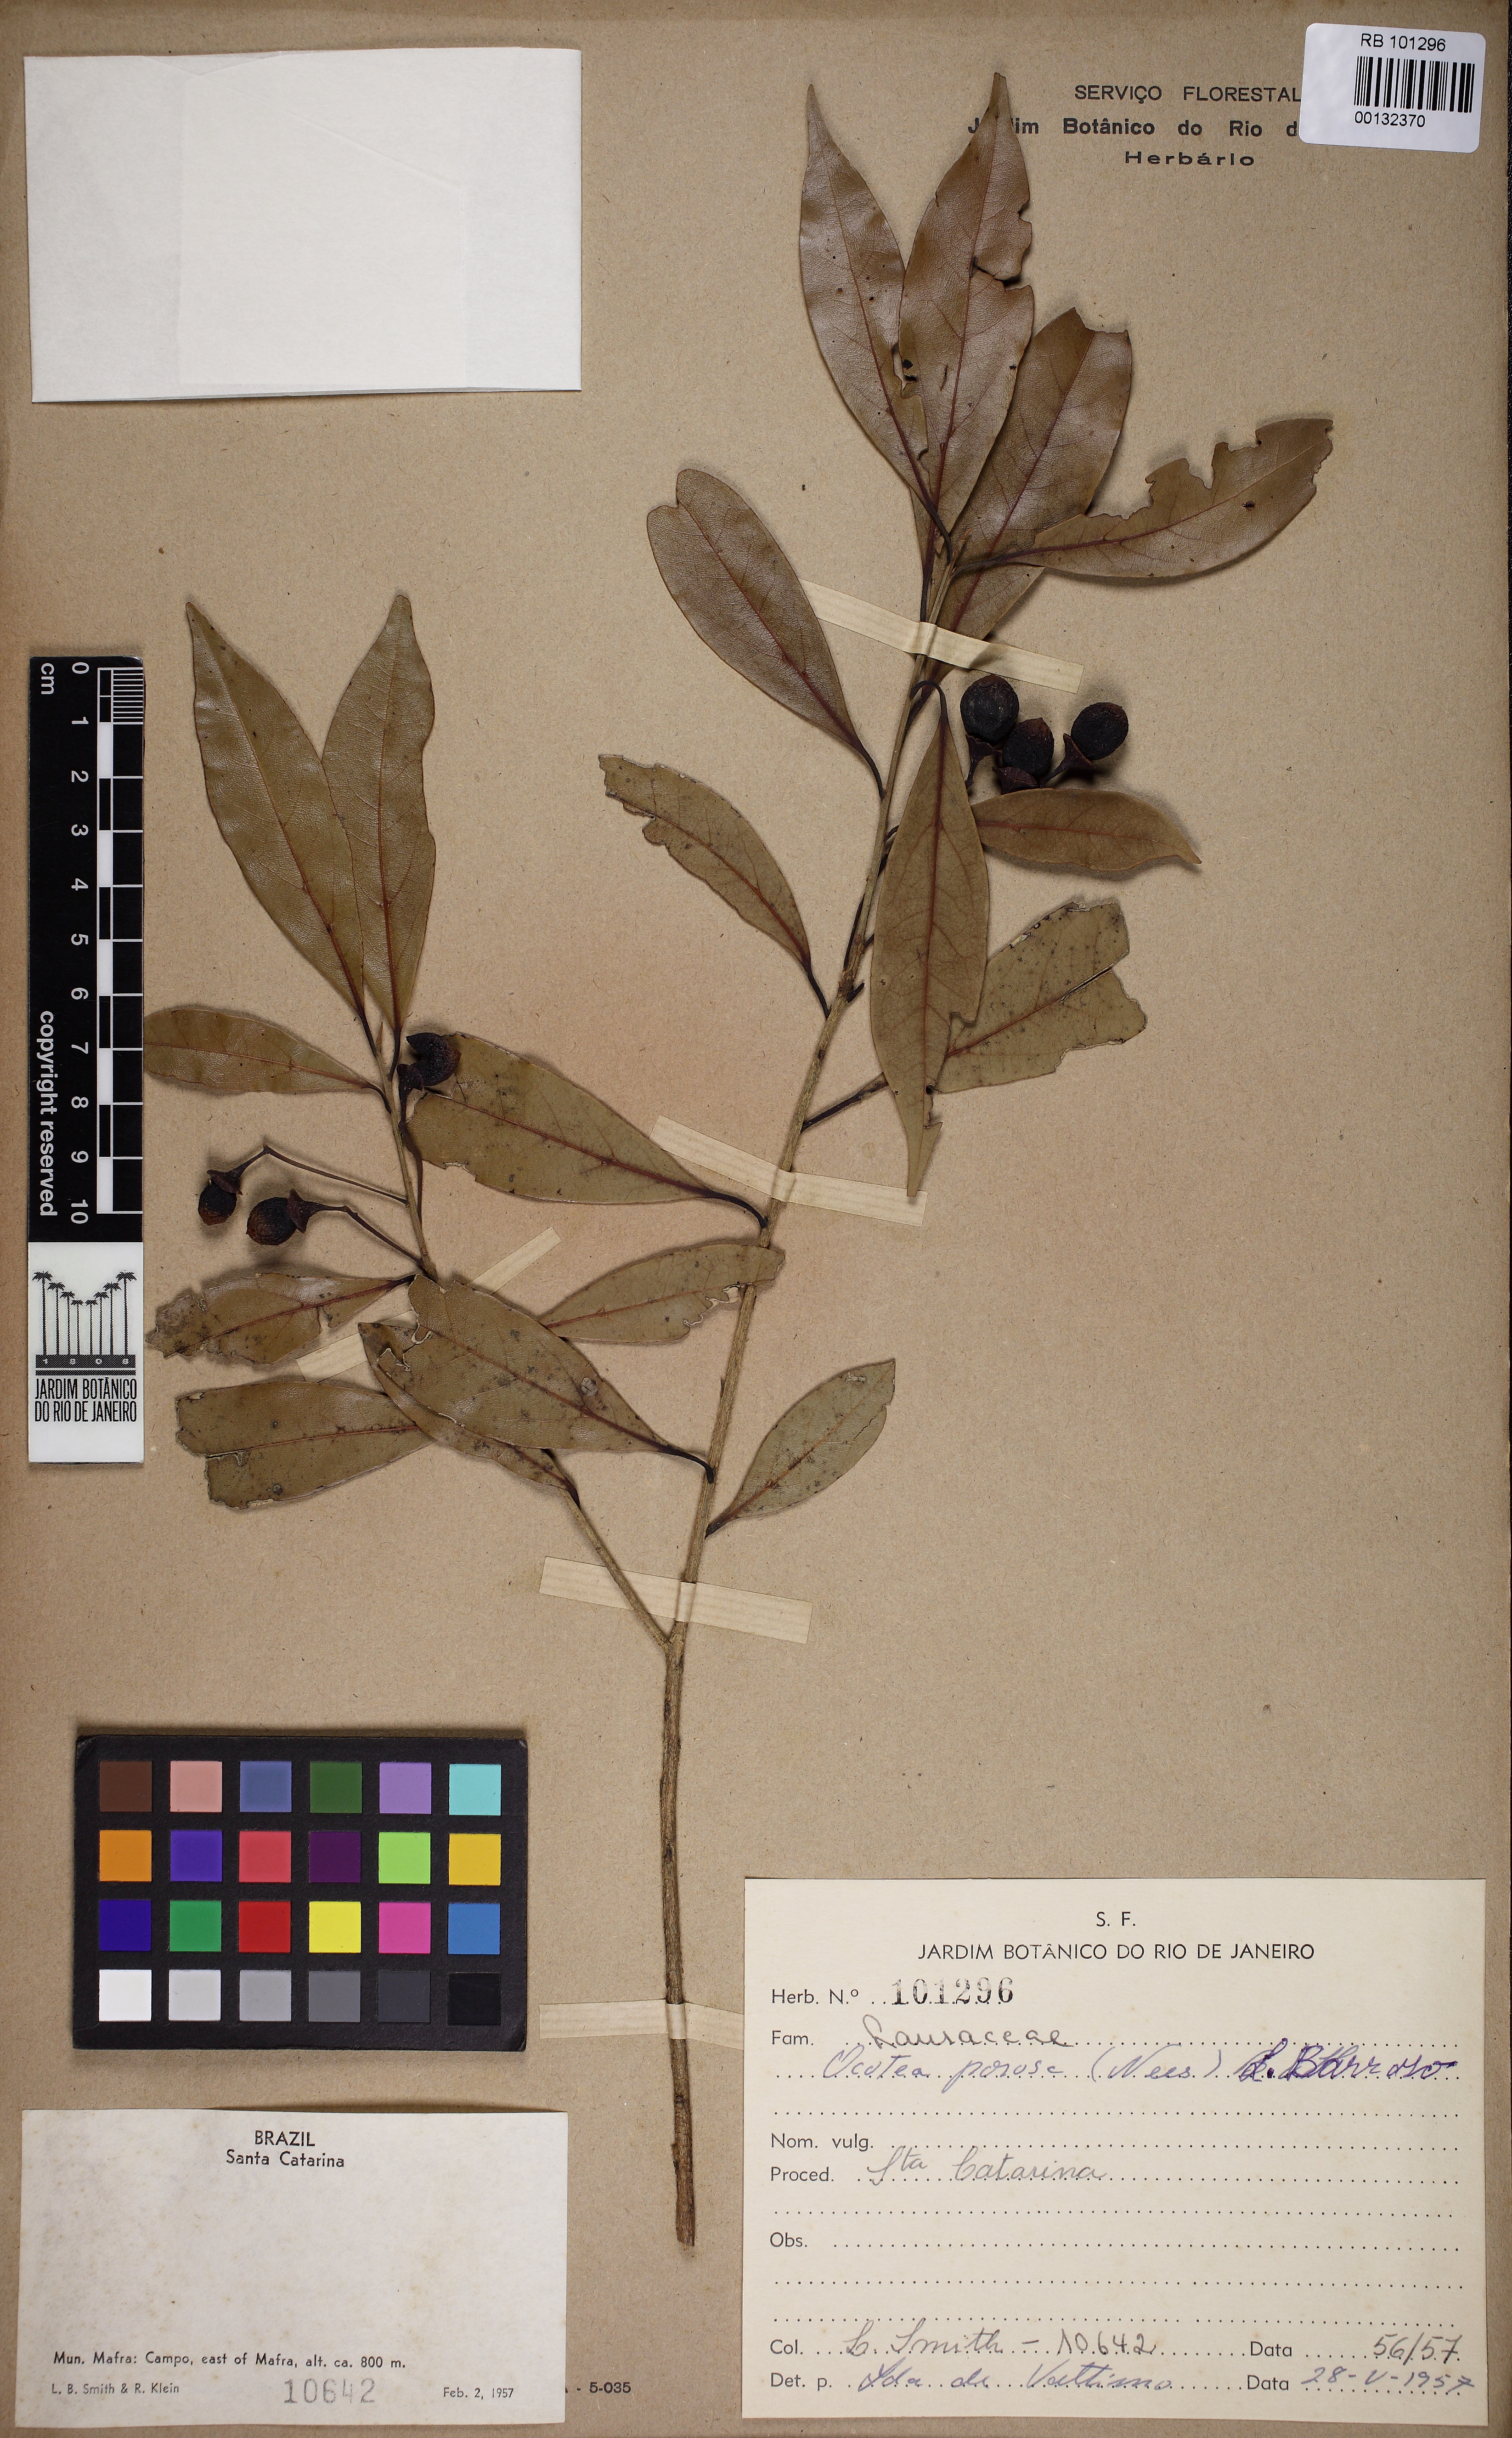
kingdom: Plantae
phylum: Tracheophyta
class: Magnoliopsida
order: Laurales
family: Lauraceae
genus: Ocotea
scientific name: Ocotea porosa
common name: Brazilian-walnut
